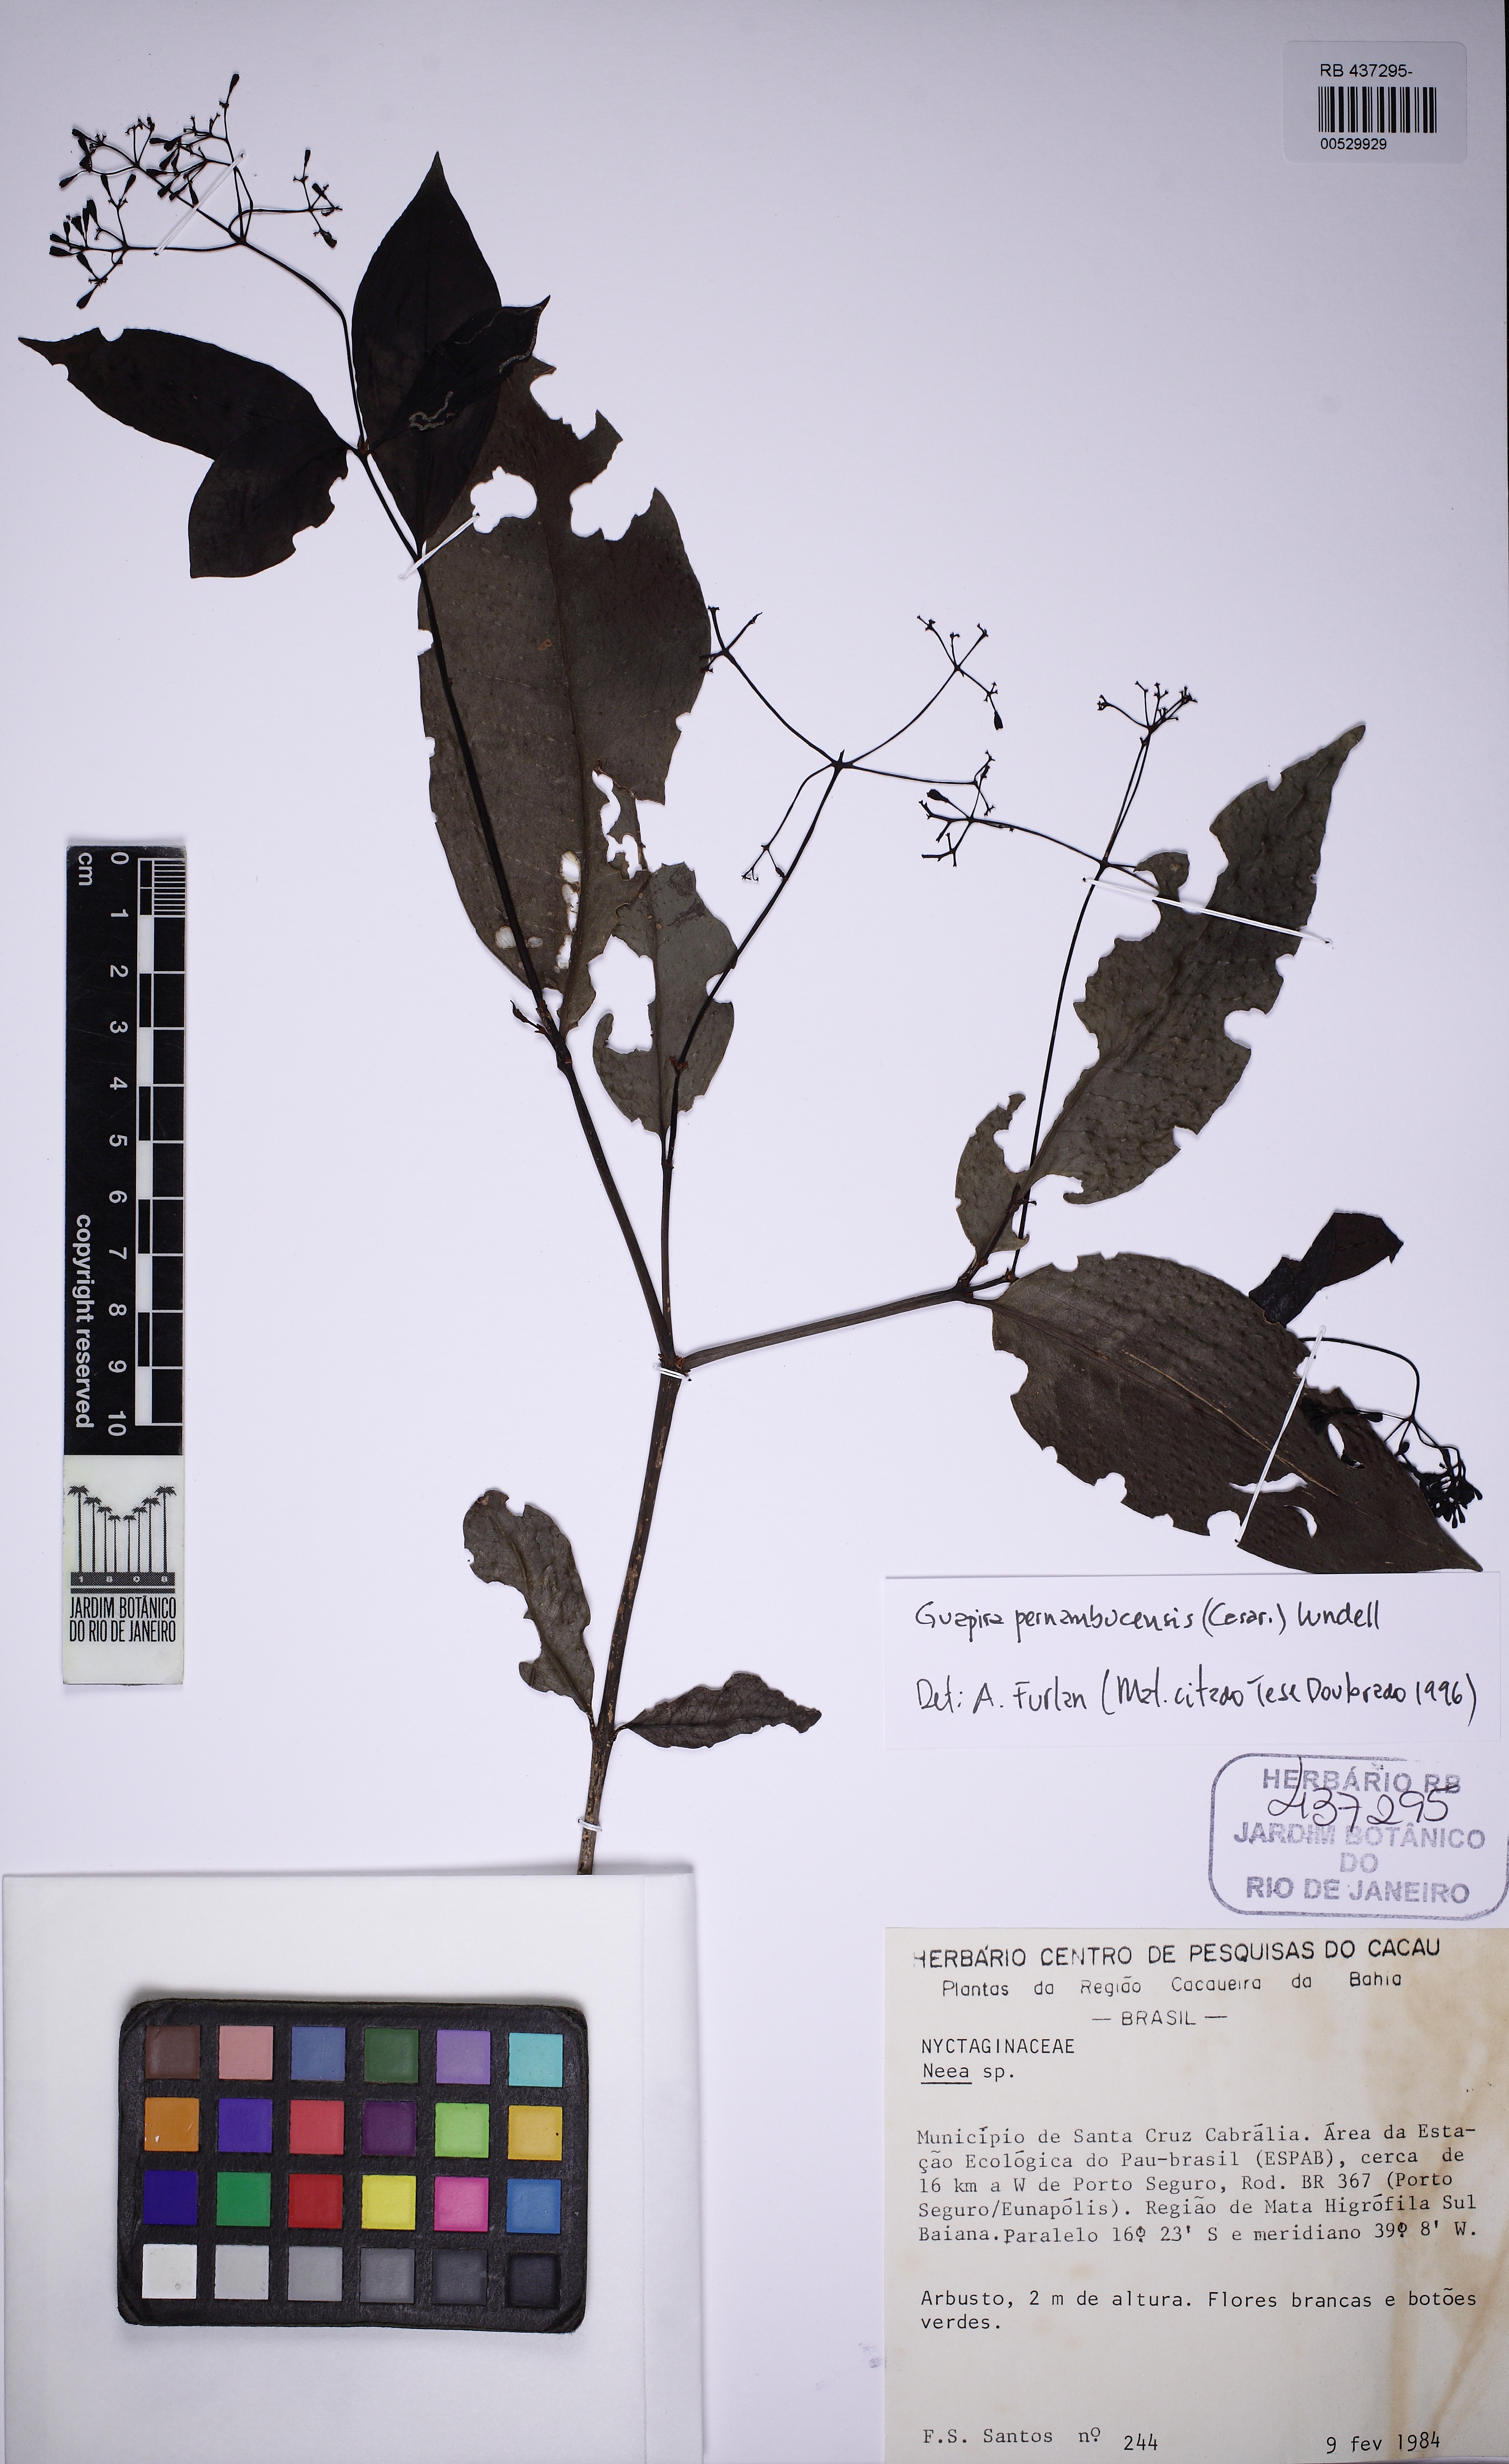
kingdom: Plantae
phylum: Tracheophyta
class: Magnoliopsida
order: Caryophyllales
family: Nyctaginaceae
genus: Guapira
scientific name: Guapira opposita
